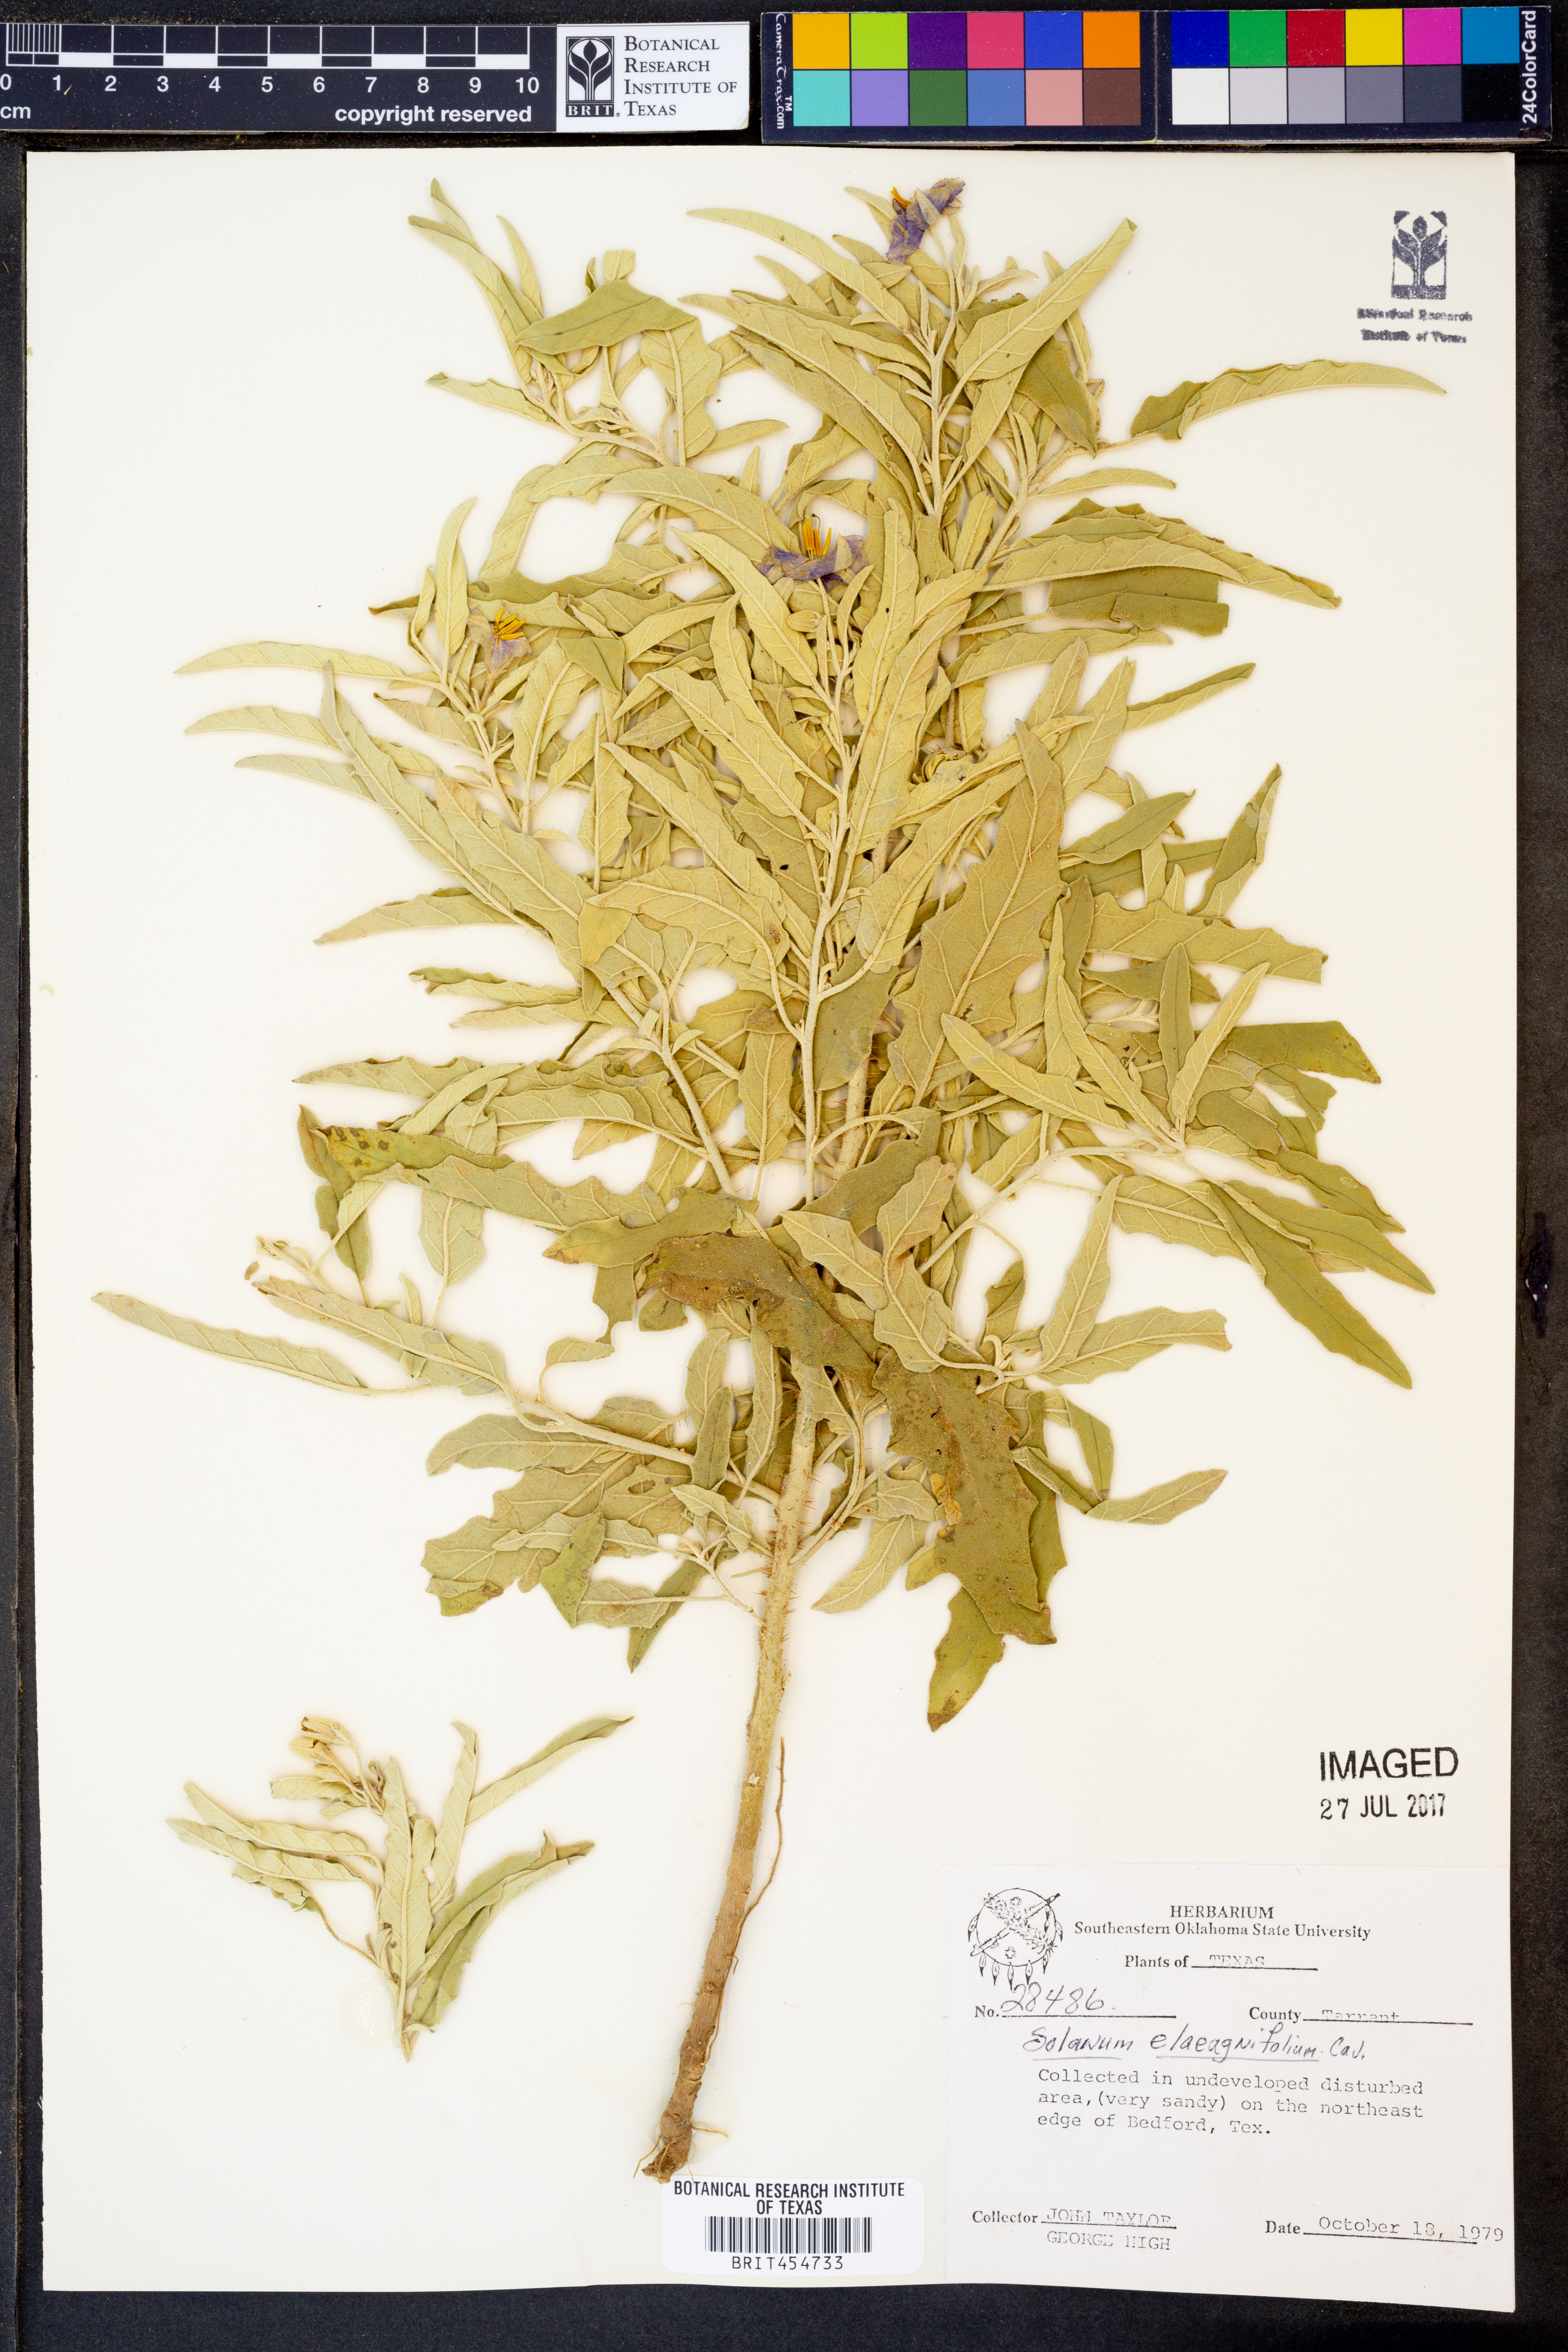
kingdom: Plantae
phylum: Tracheophyta
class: Magnoliopsida
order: Solanales
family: Solanaceae
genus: Solanum
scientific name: Solanum elaeagnifolium
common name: Silverleaf nightshade
